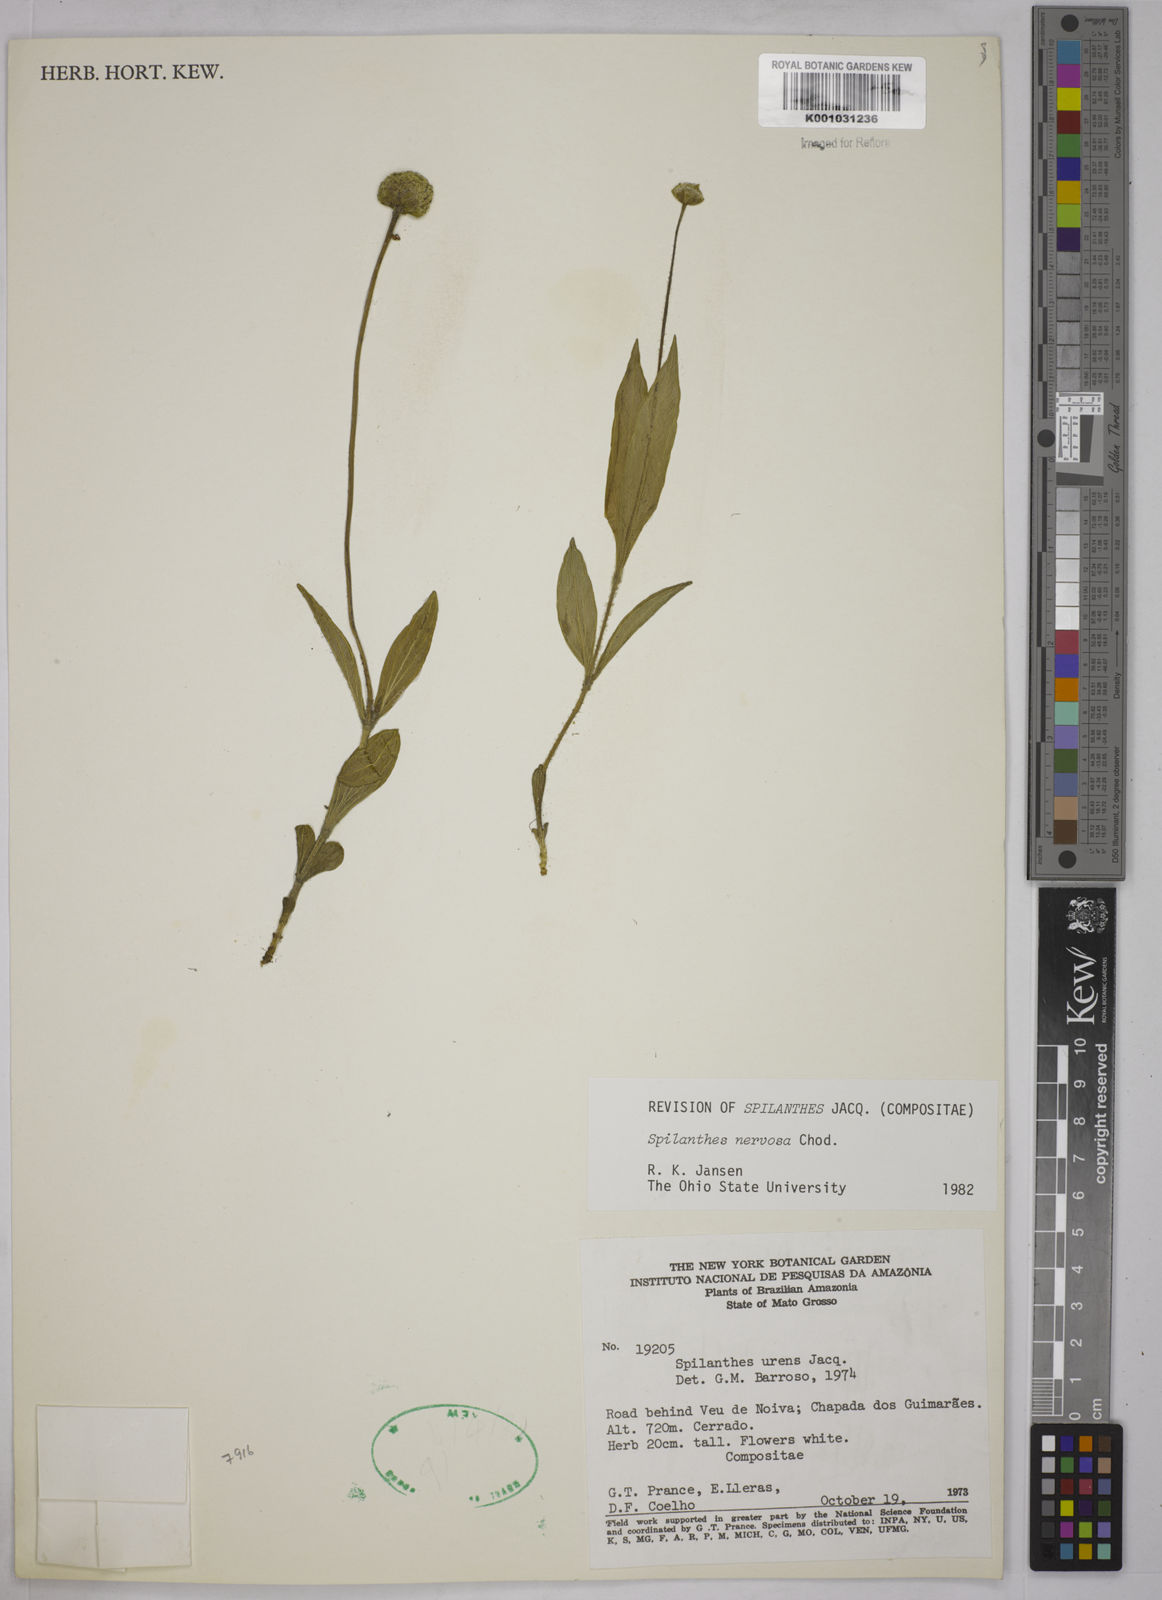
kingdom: Plantae
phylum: Tracheophyta
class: Magnoliopsida
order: Asterales
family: Asteraceae
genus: Spilanthes
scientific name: Spilanthes nervosa
